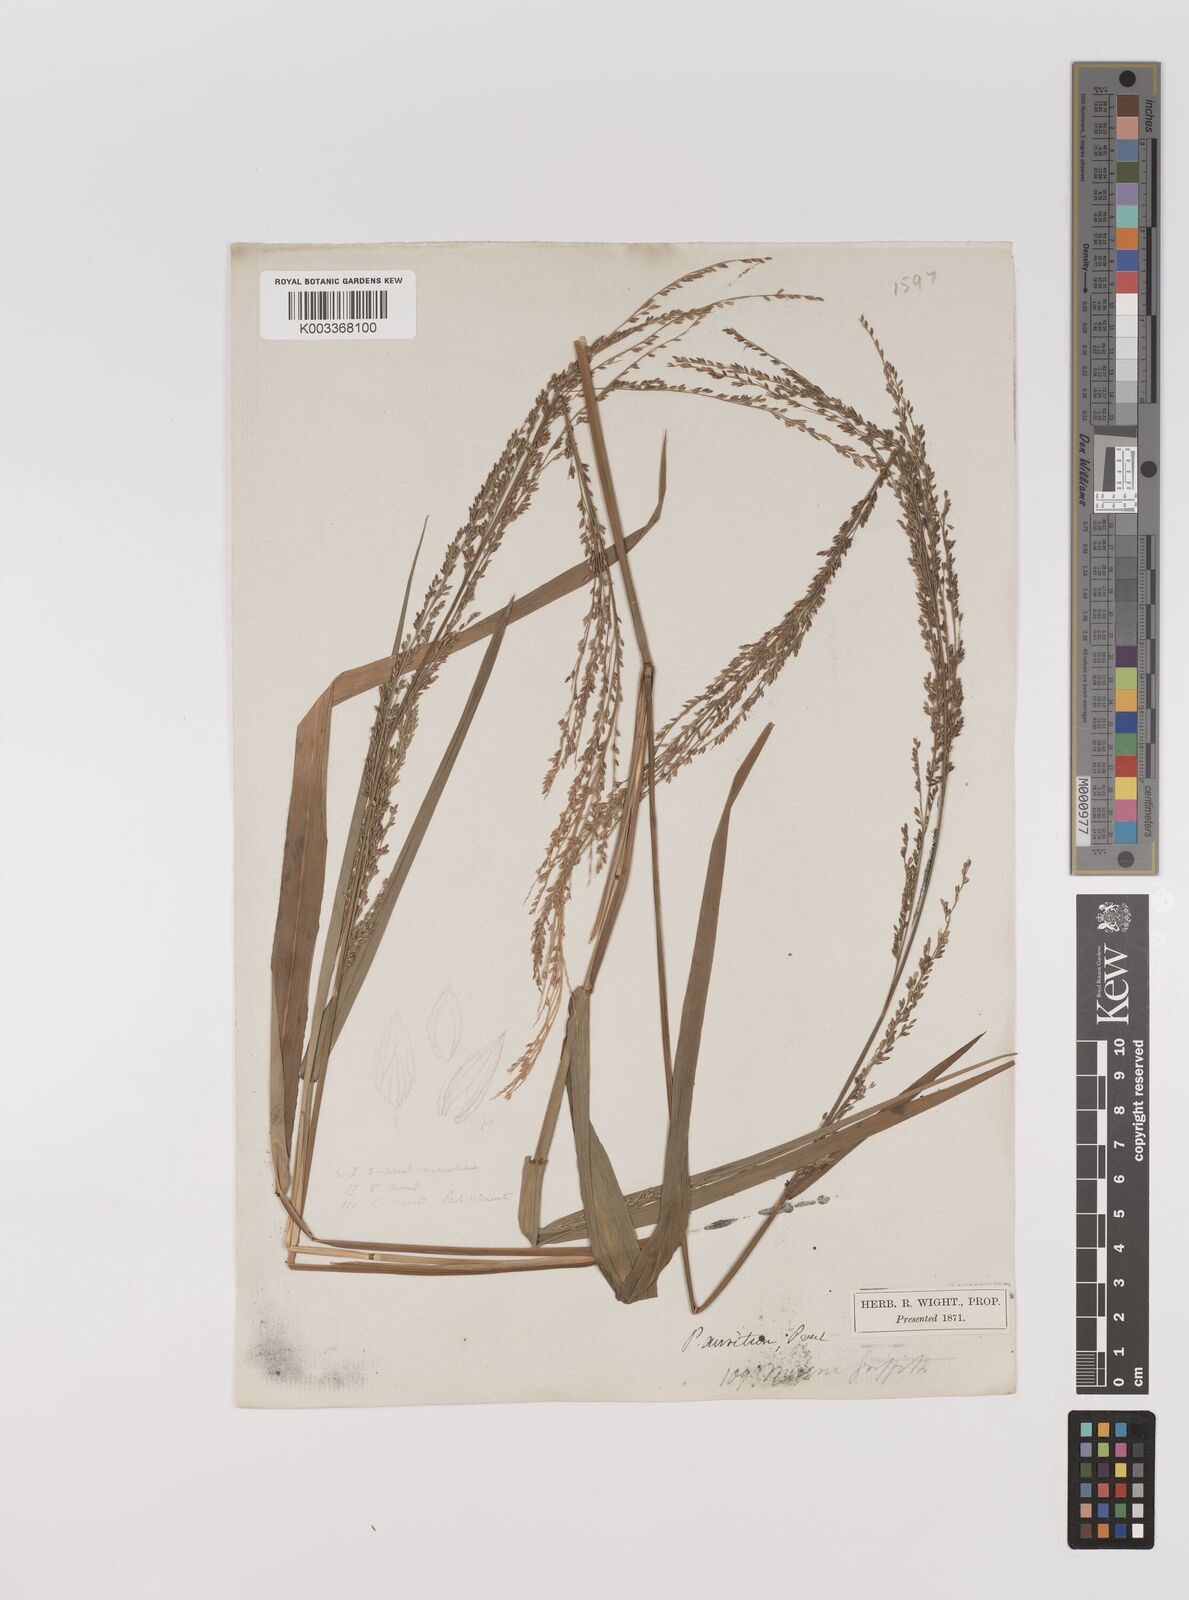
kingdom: Plantae
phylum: Tracheophyta
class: Liliopsida
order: Poales
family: Poaceae
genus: Hymenachne
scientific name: Hymenachne aurita
